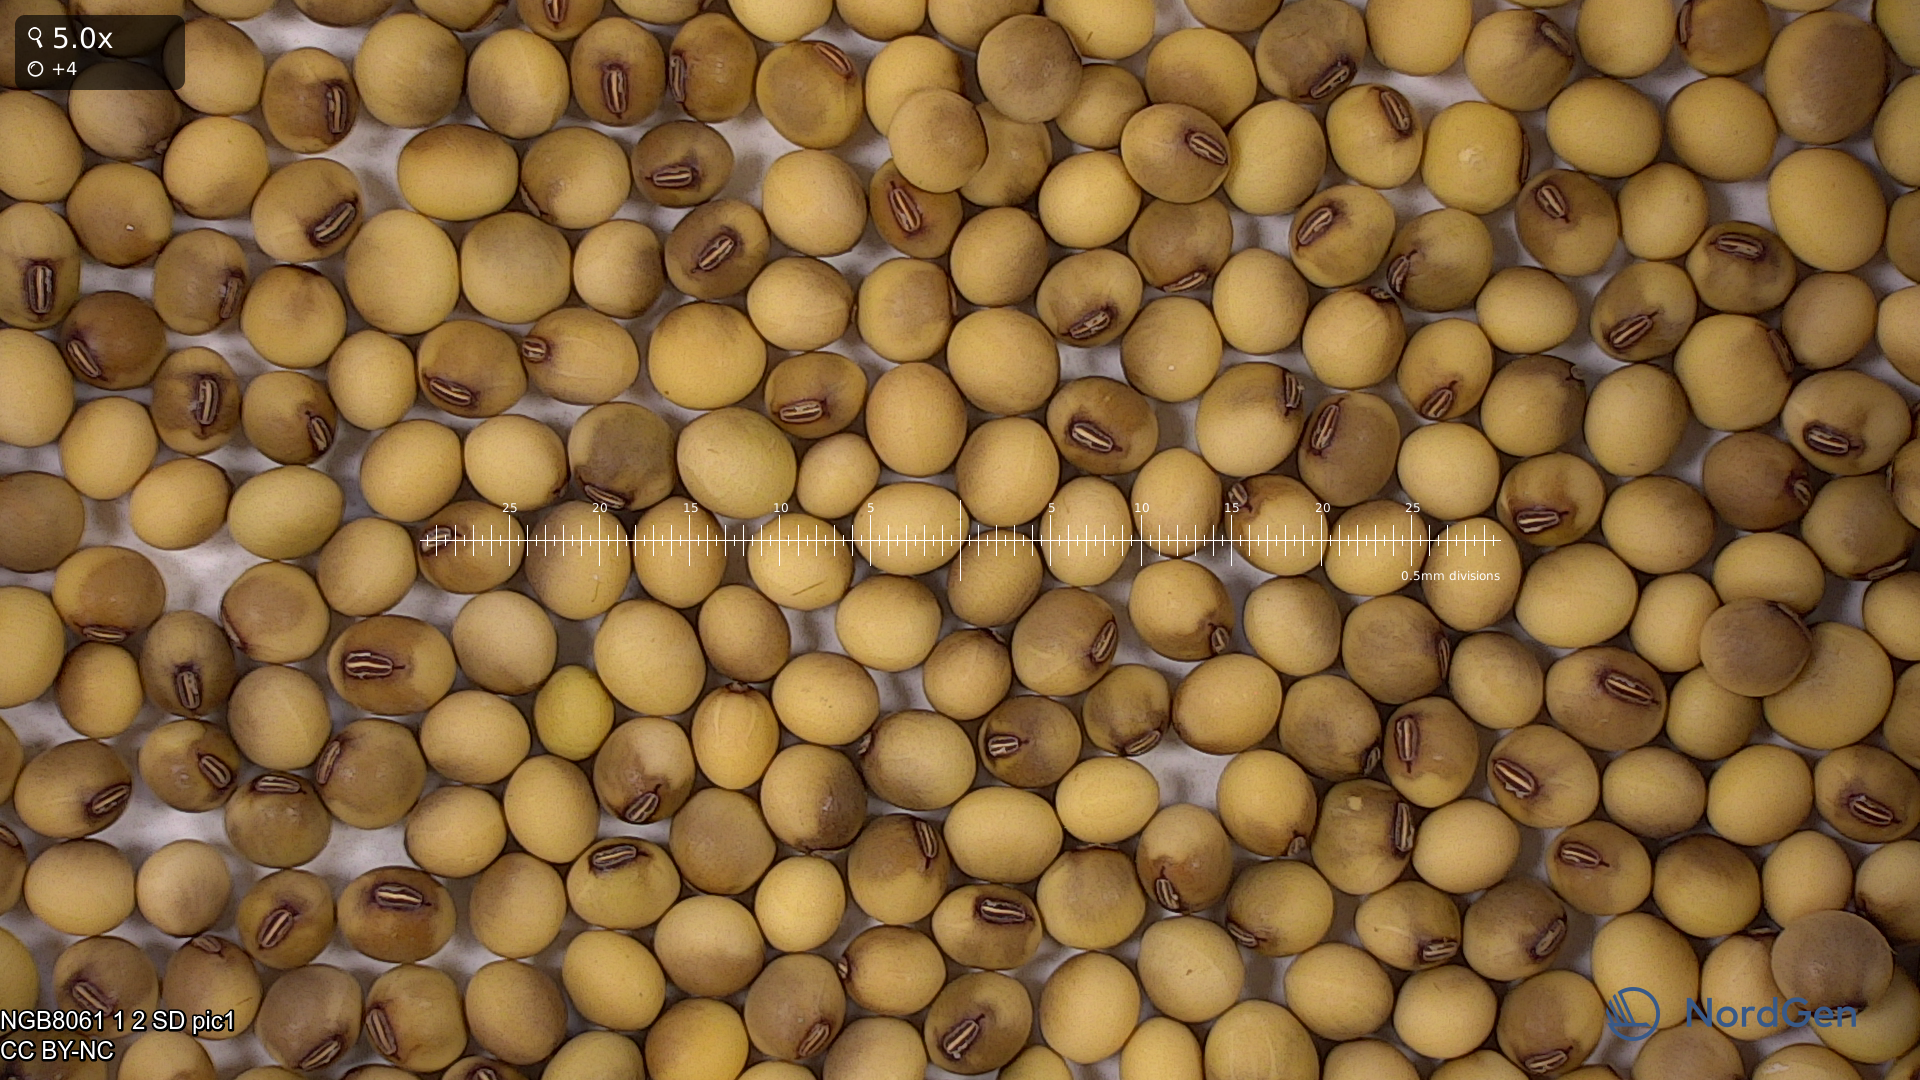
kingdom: Plantae
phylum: Tracheophyta
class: Magnoliopsida
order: Fabales
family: Fabaceae
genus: Glycine
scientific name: Glycine max
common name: Soya-bean
